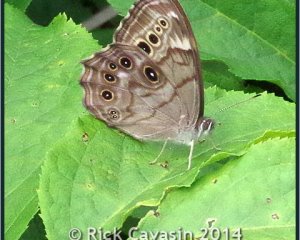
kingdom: Animalia
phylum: Arthropoda
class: Insecta
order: Lepidoptera
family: Nymphalidae
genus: Lethe
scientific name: Lethe anthedon
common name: Northern Pearly-Eye
